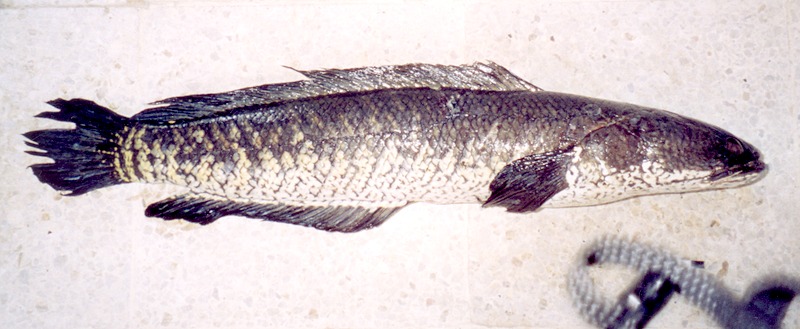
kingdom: Animalia
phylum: Chordata
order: Perciformes
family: Channidae
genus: Channa
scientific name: Channa striata
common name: Striped snakehead
